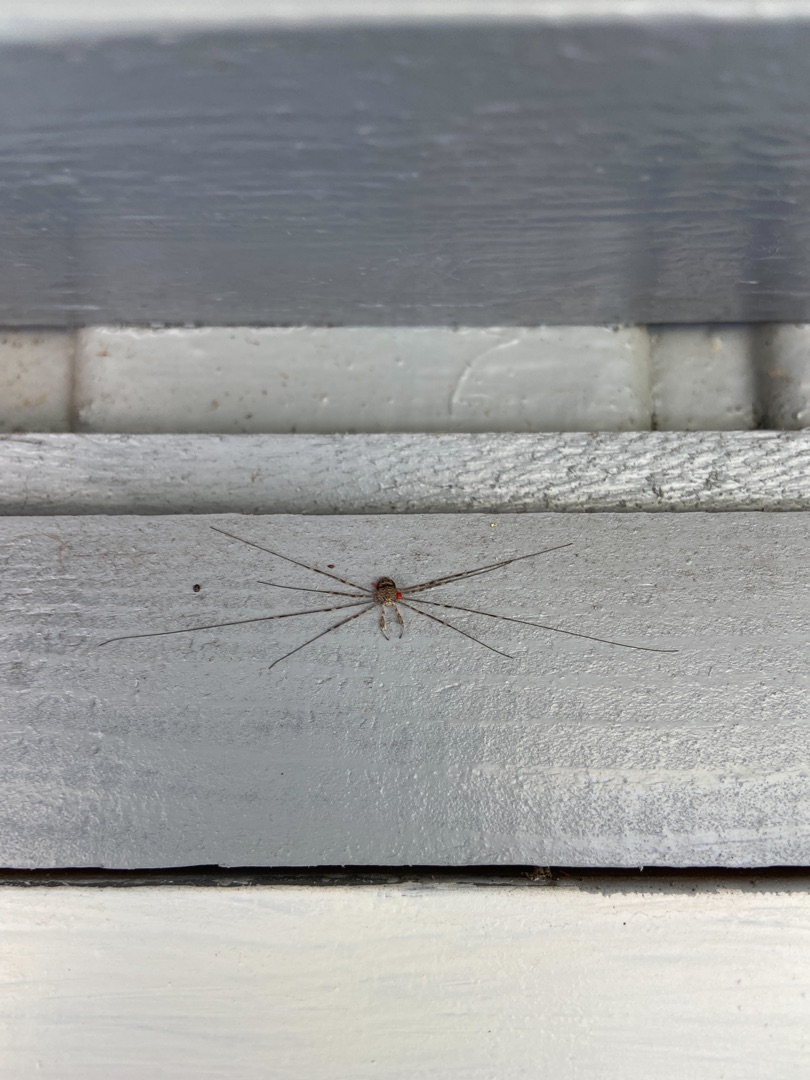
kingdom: Animalia
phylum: Arthropoda
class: Arachnida
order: Opiliones
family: Phalangiidae
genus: Dicranopalpus
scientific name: Dicranopalpus ramosus
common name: Gaffelmejer
